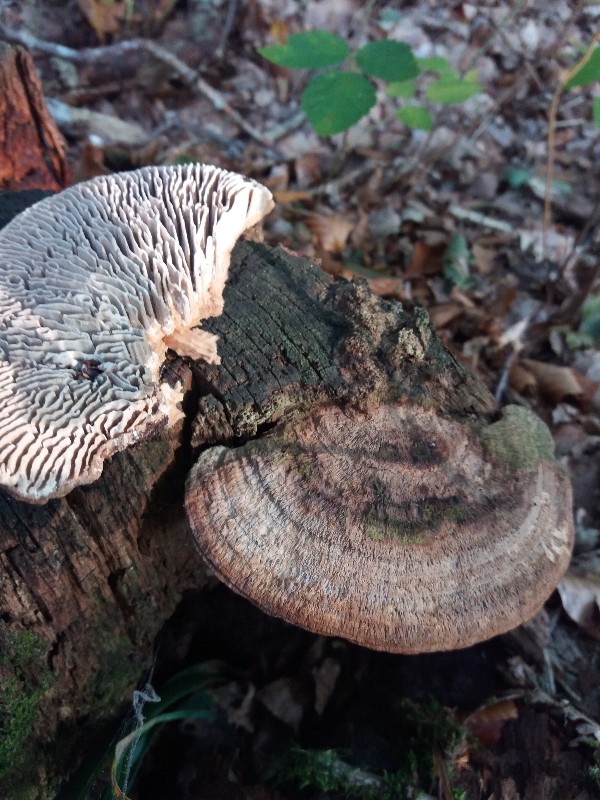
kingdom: Fungi
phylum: Basidiomycota
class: Agaricomycetes
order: Polyporales
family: Fomitopsidaceae
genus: Daedalea
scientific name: Daedalea quercina
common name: ege-labyrintsvamp
